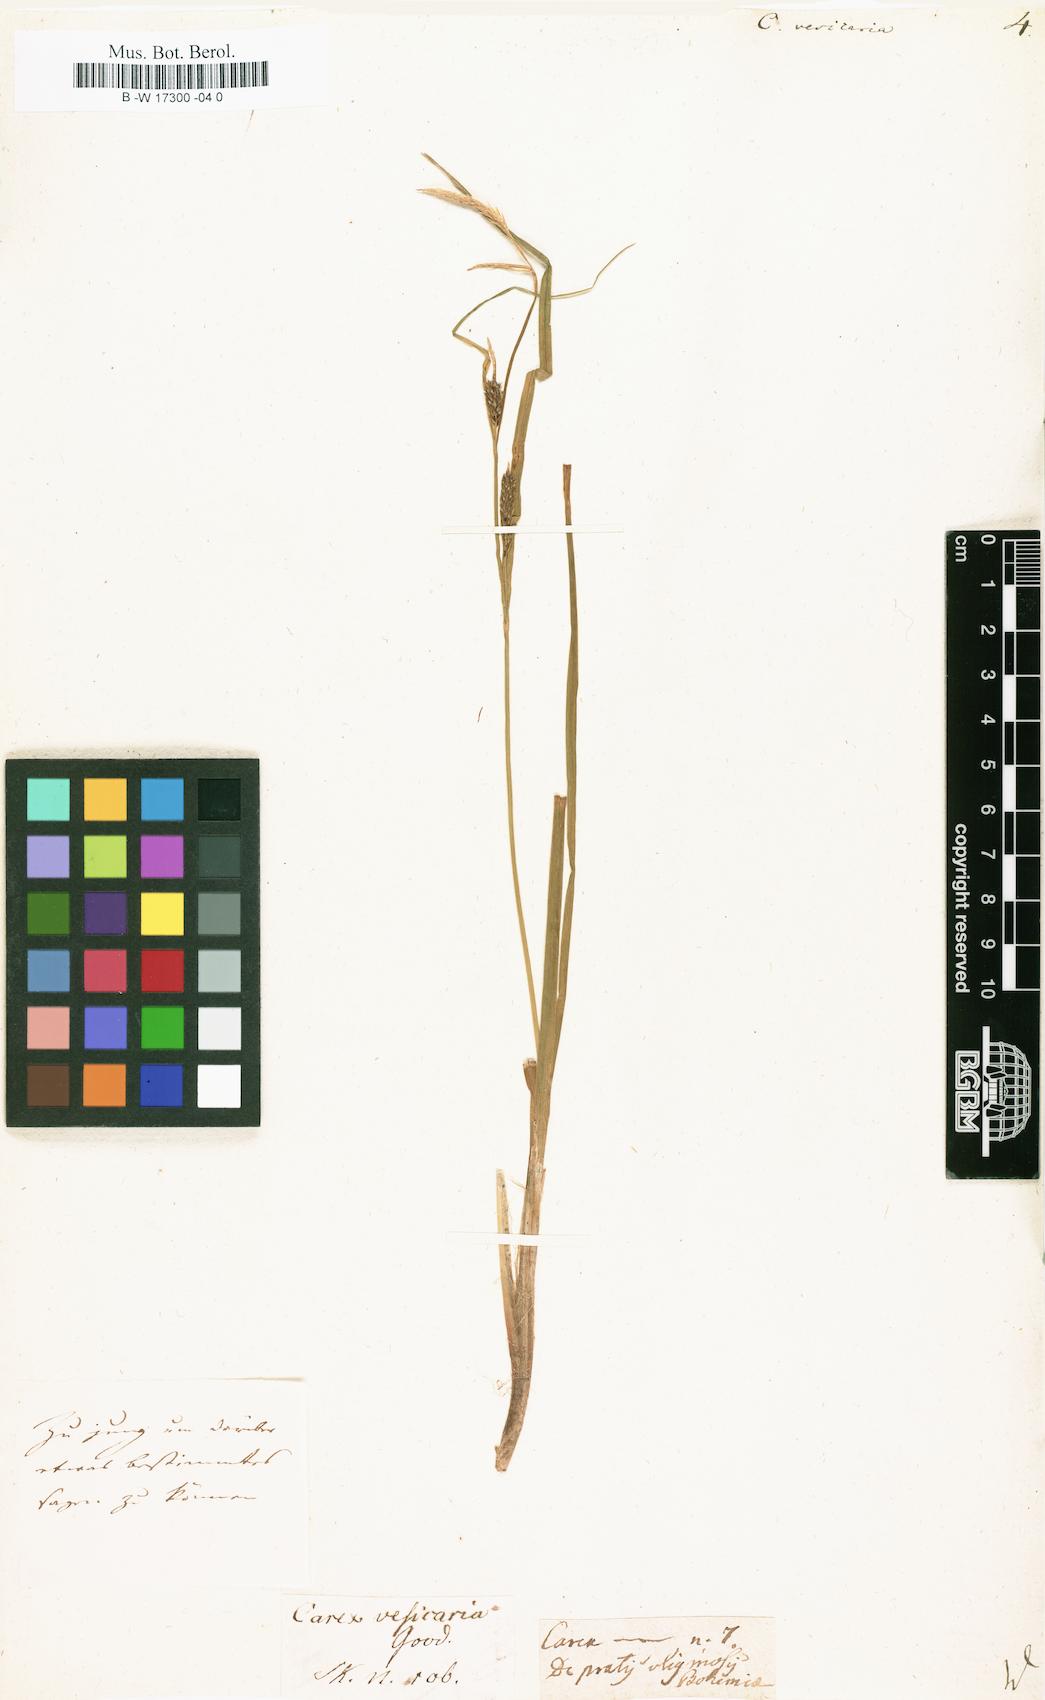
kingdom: Plantae
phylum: Tracheophyta
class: Liliopsida
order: Poales
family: Cyperaceae
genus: Carex
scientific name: Carex vesicaria
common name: Bladder-sedge
